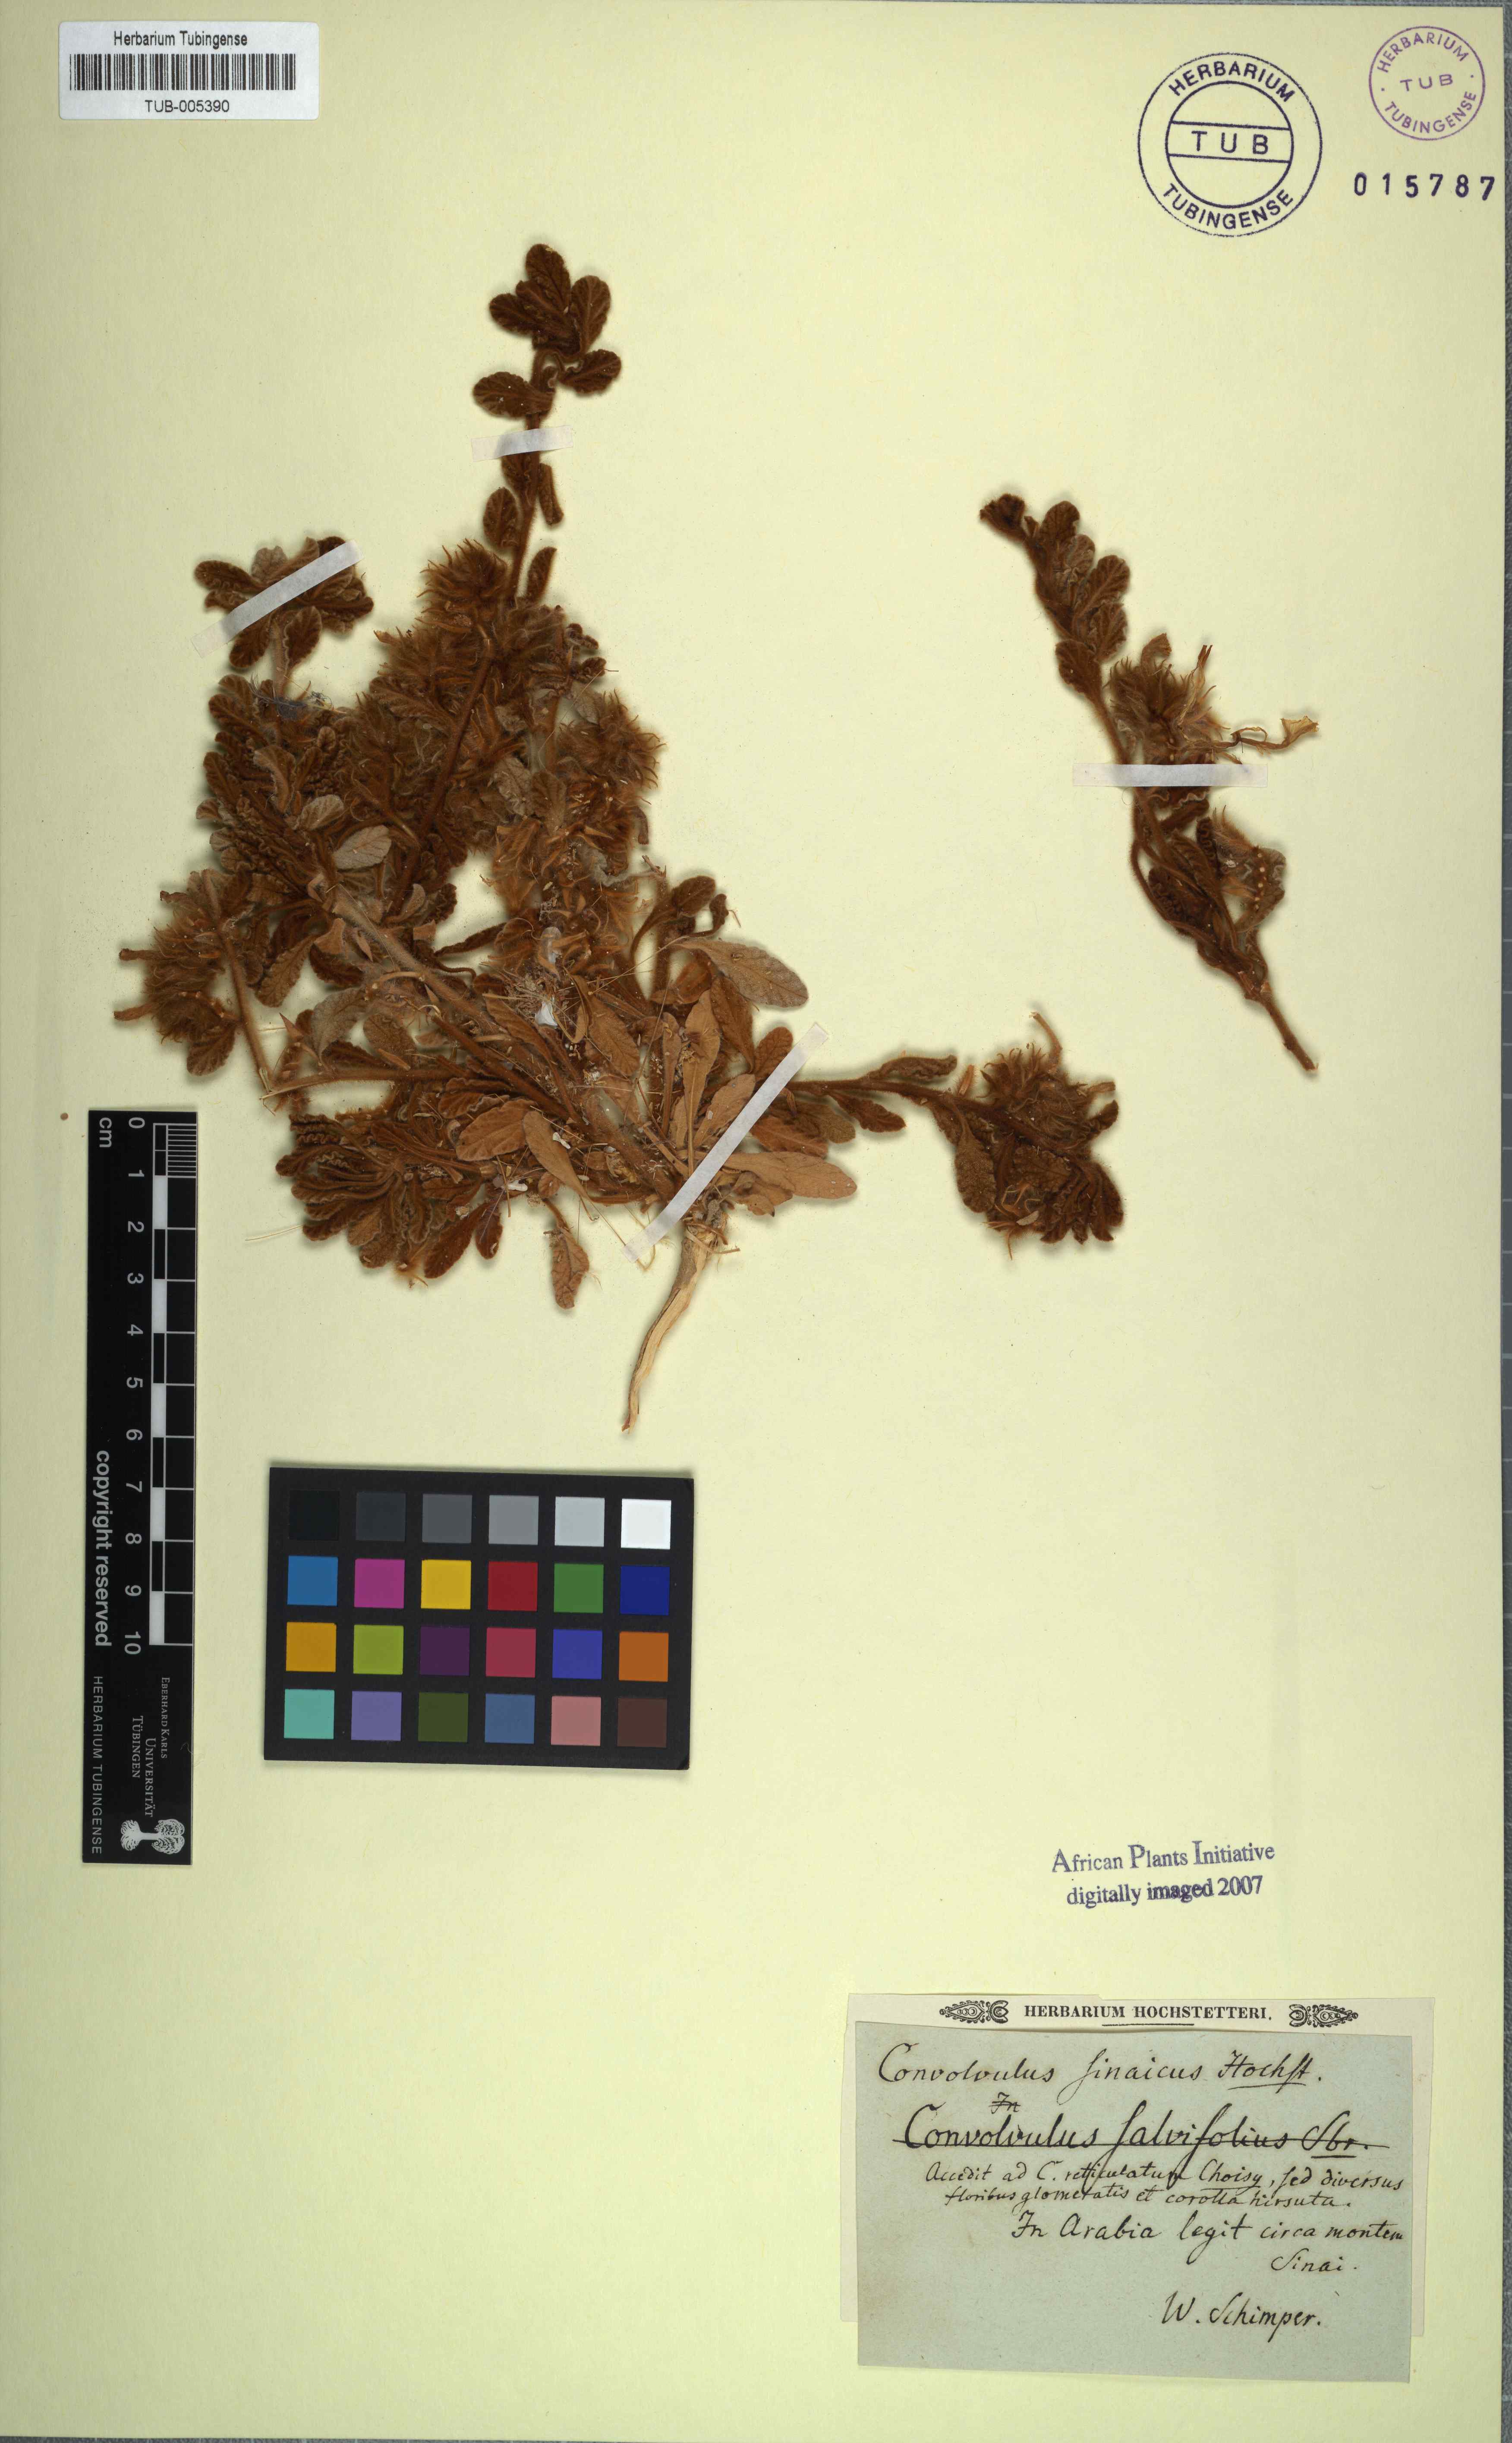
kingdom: Plantae
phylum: Tracheophyta
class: Magnoliopsida
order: Solanales
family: Convolvulaceae
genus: Convolvulus
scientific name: Convolvulus
